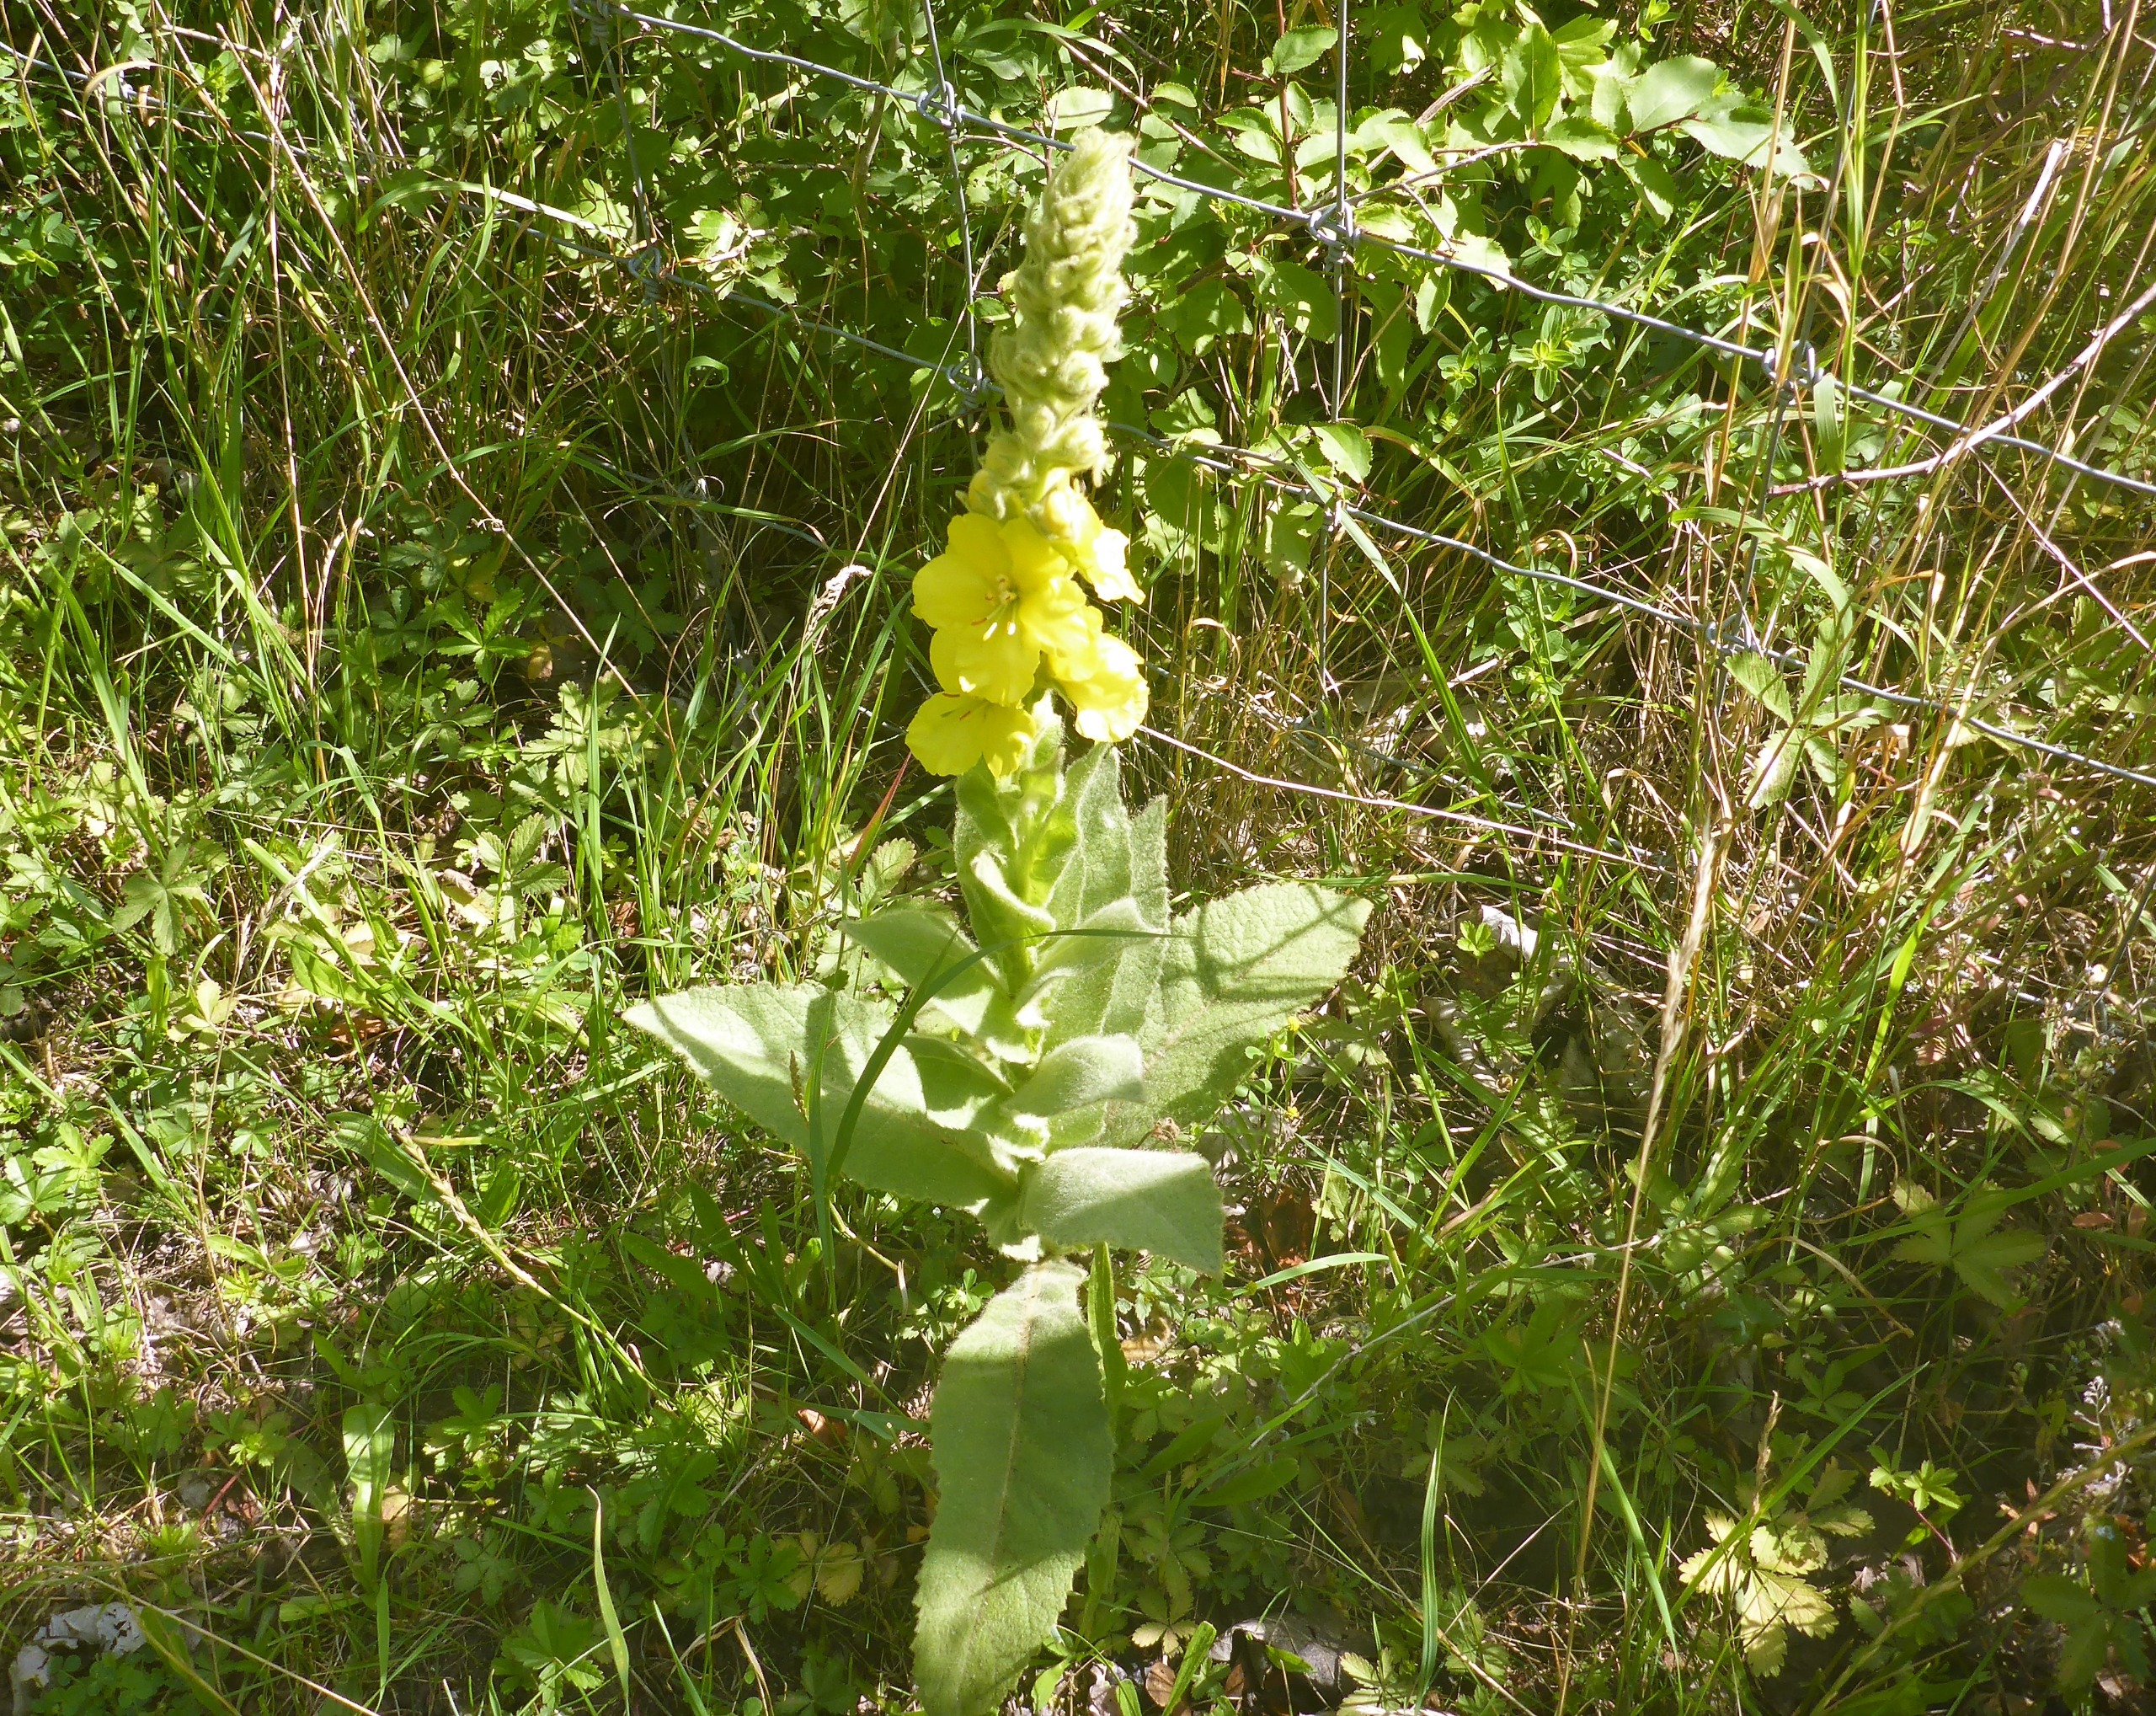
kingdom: Plantae
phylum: Tracheophyta
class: Magnoliopsida
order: Lamiales
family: Scrophulariaceae
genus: Verbascum
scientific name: Verbascum densiflorum
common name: Uldbladet kongelys
